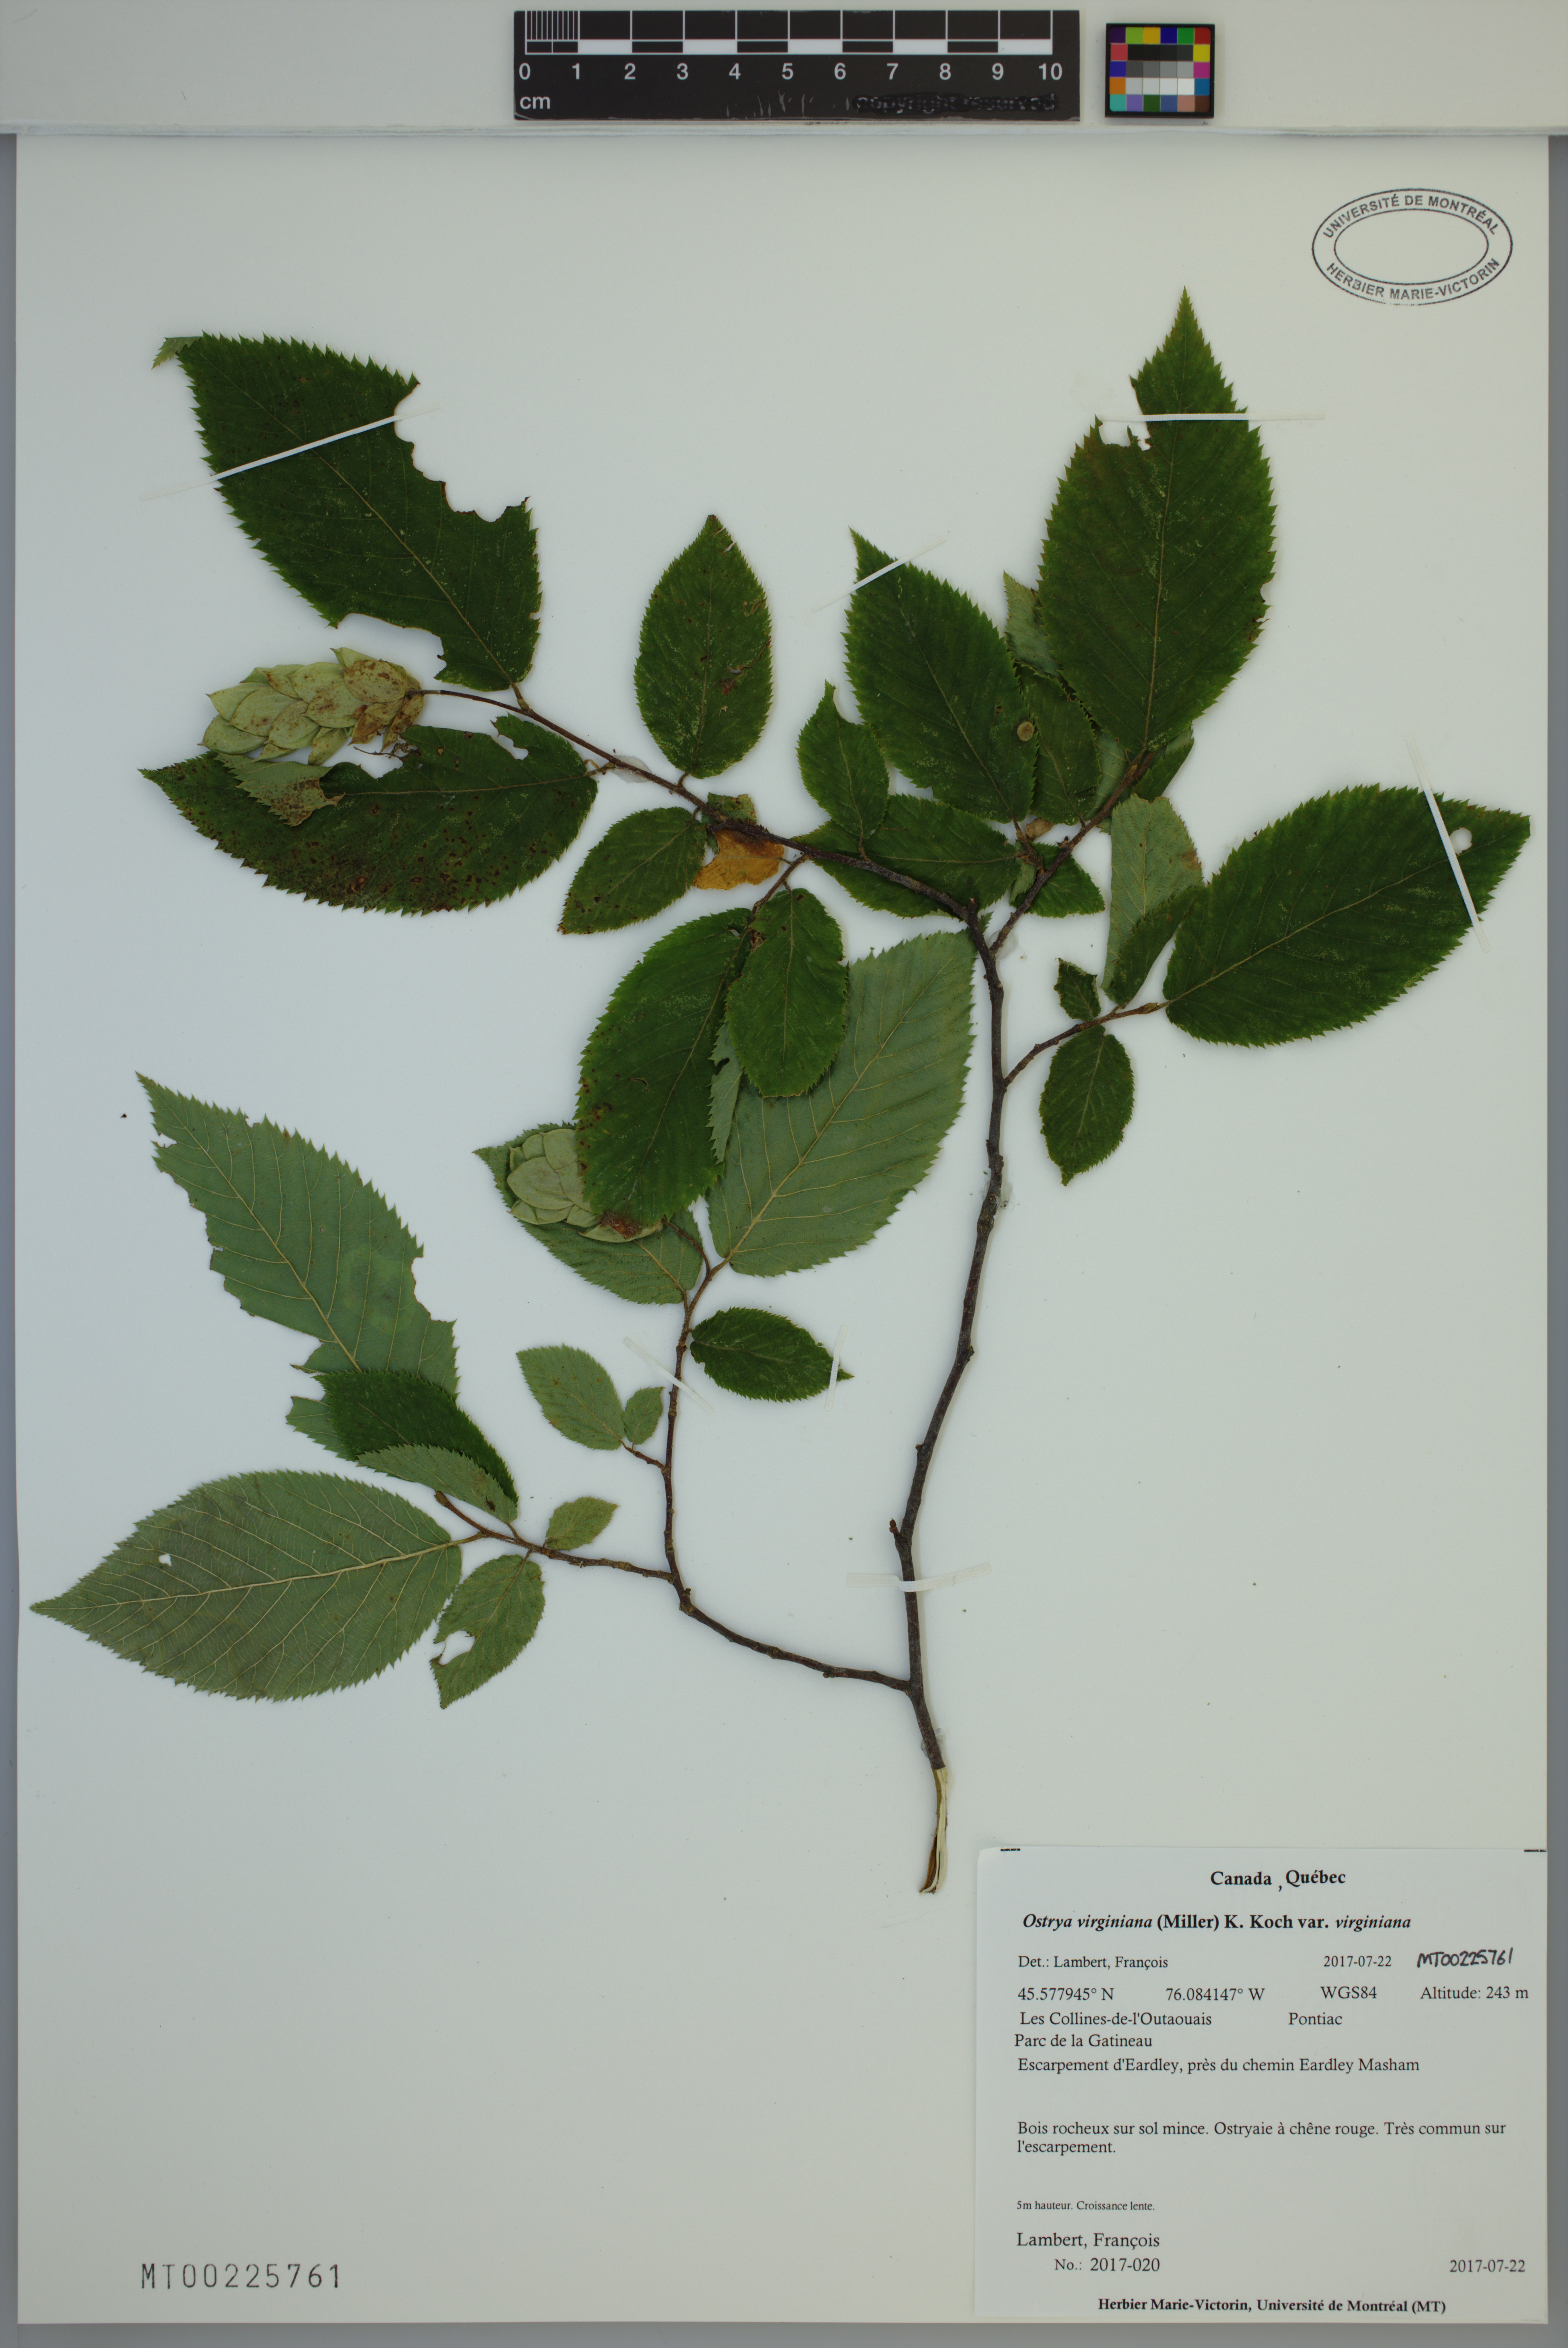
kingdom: Plantae
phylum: Tracheophyta
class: Magnoliopsida
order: Fagales
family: Betulaceae
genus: Ostrya
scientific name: Ostrya virginiana
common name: Ironwood
